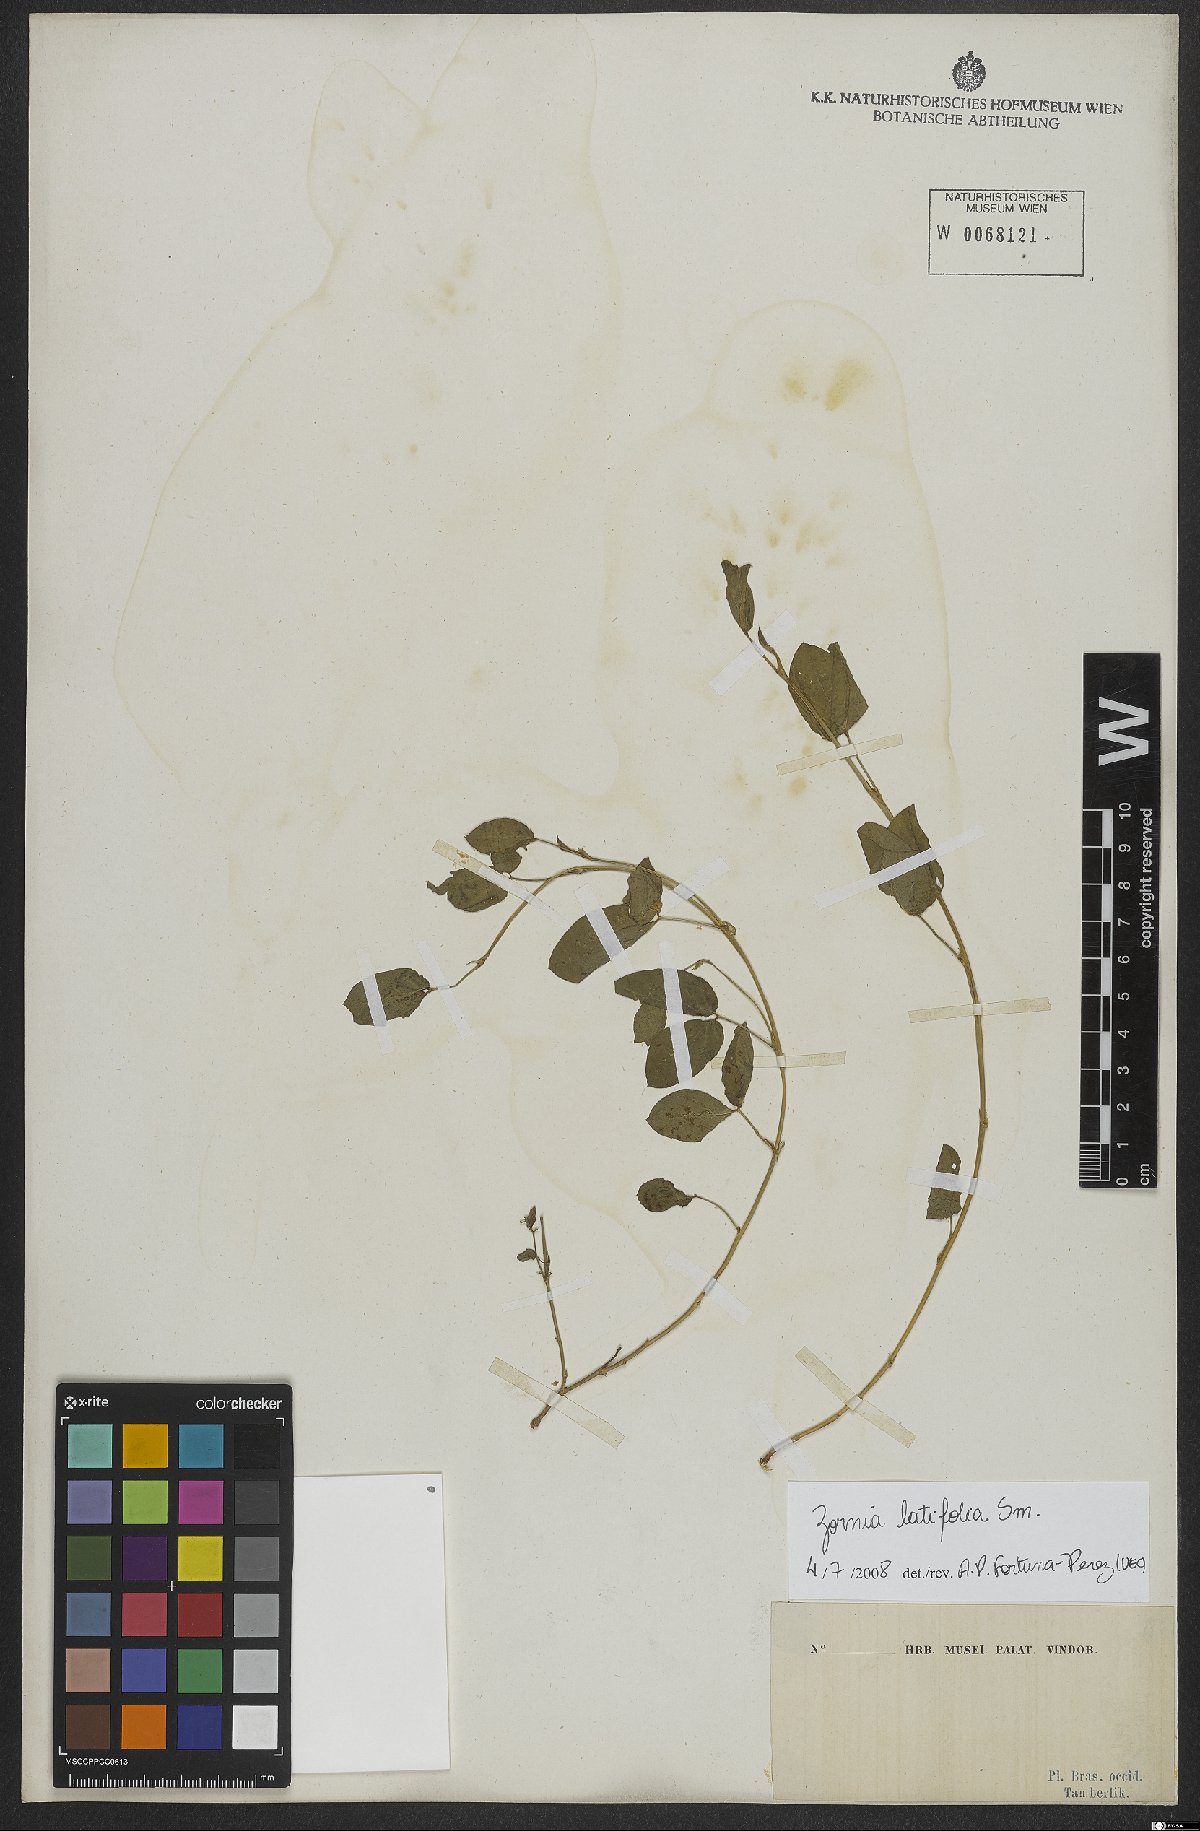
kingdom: Plantae
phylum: Tracheophyta
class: Magnoliopsida
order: Fabales
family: Fabaceae
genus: Zornia
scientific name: Zornia sericea
